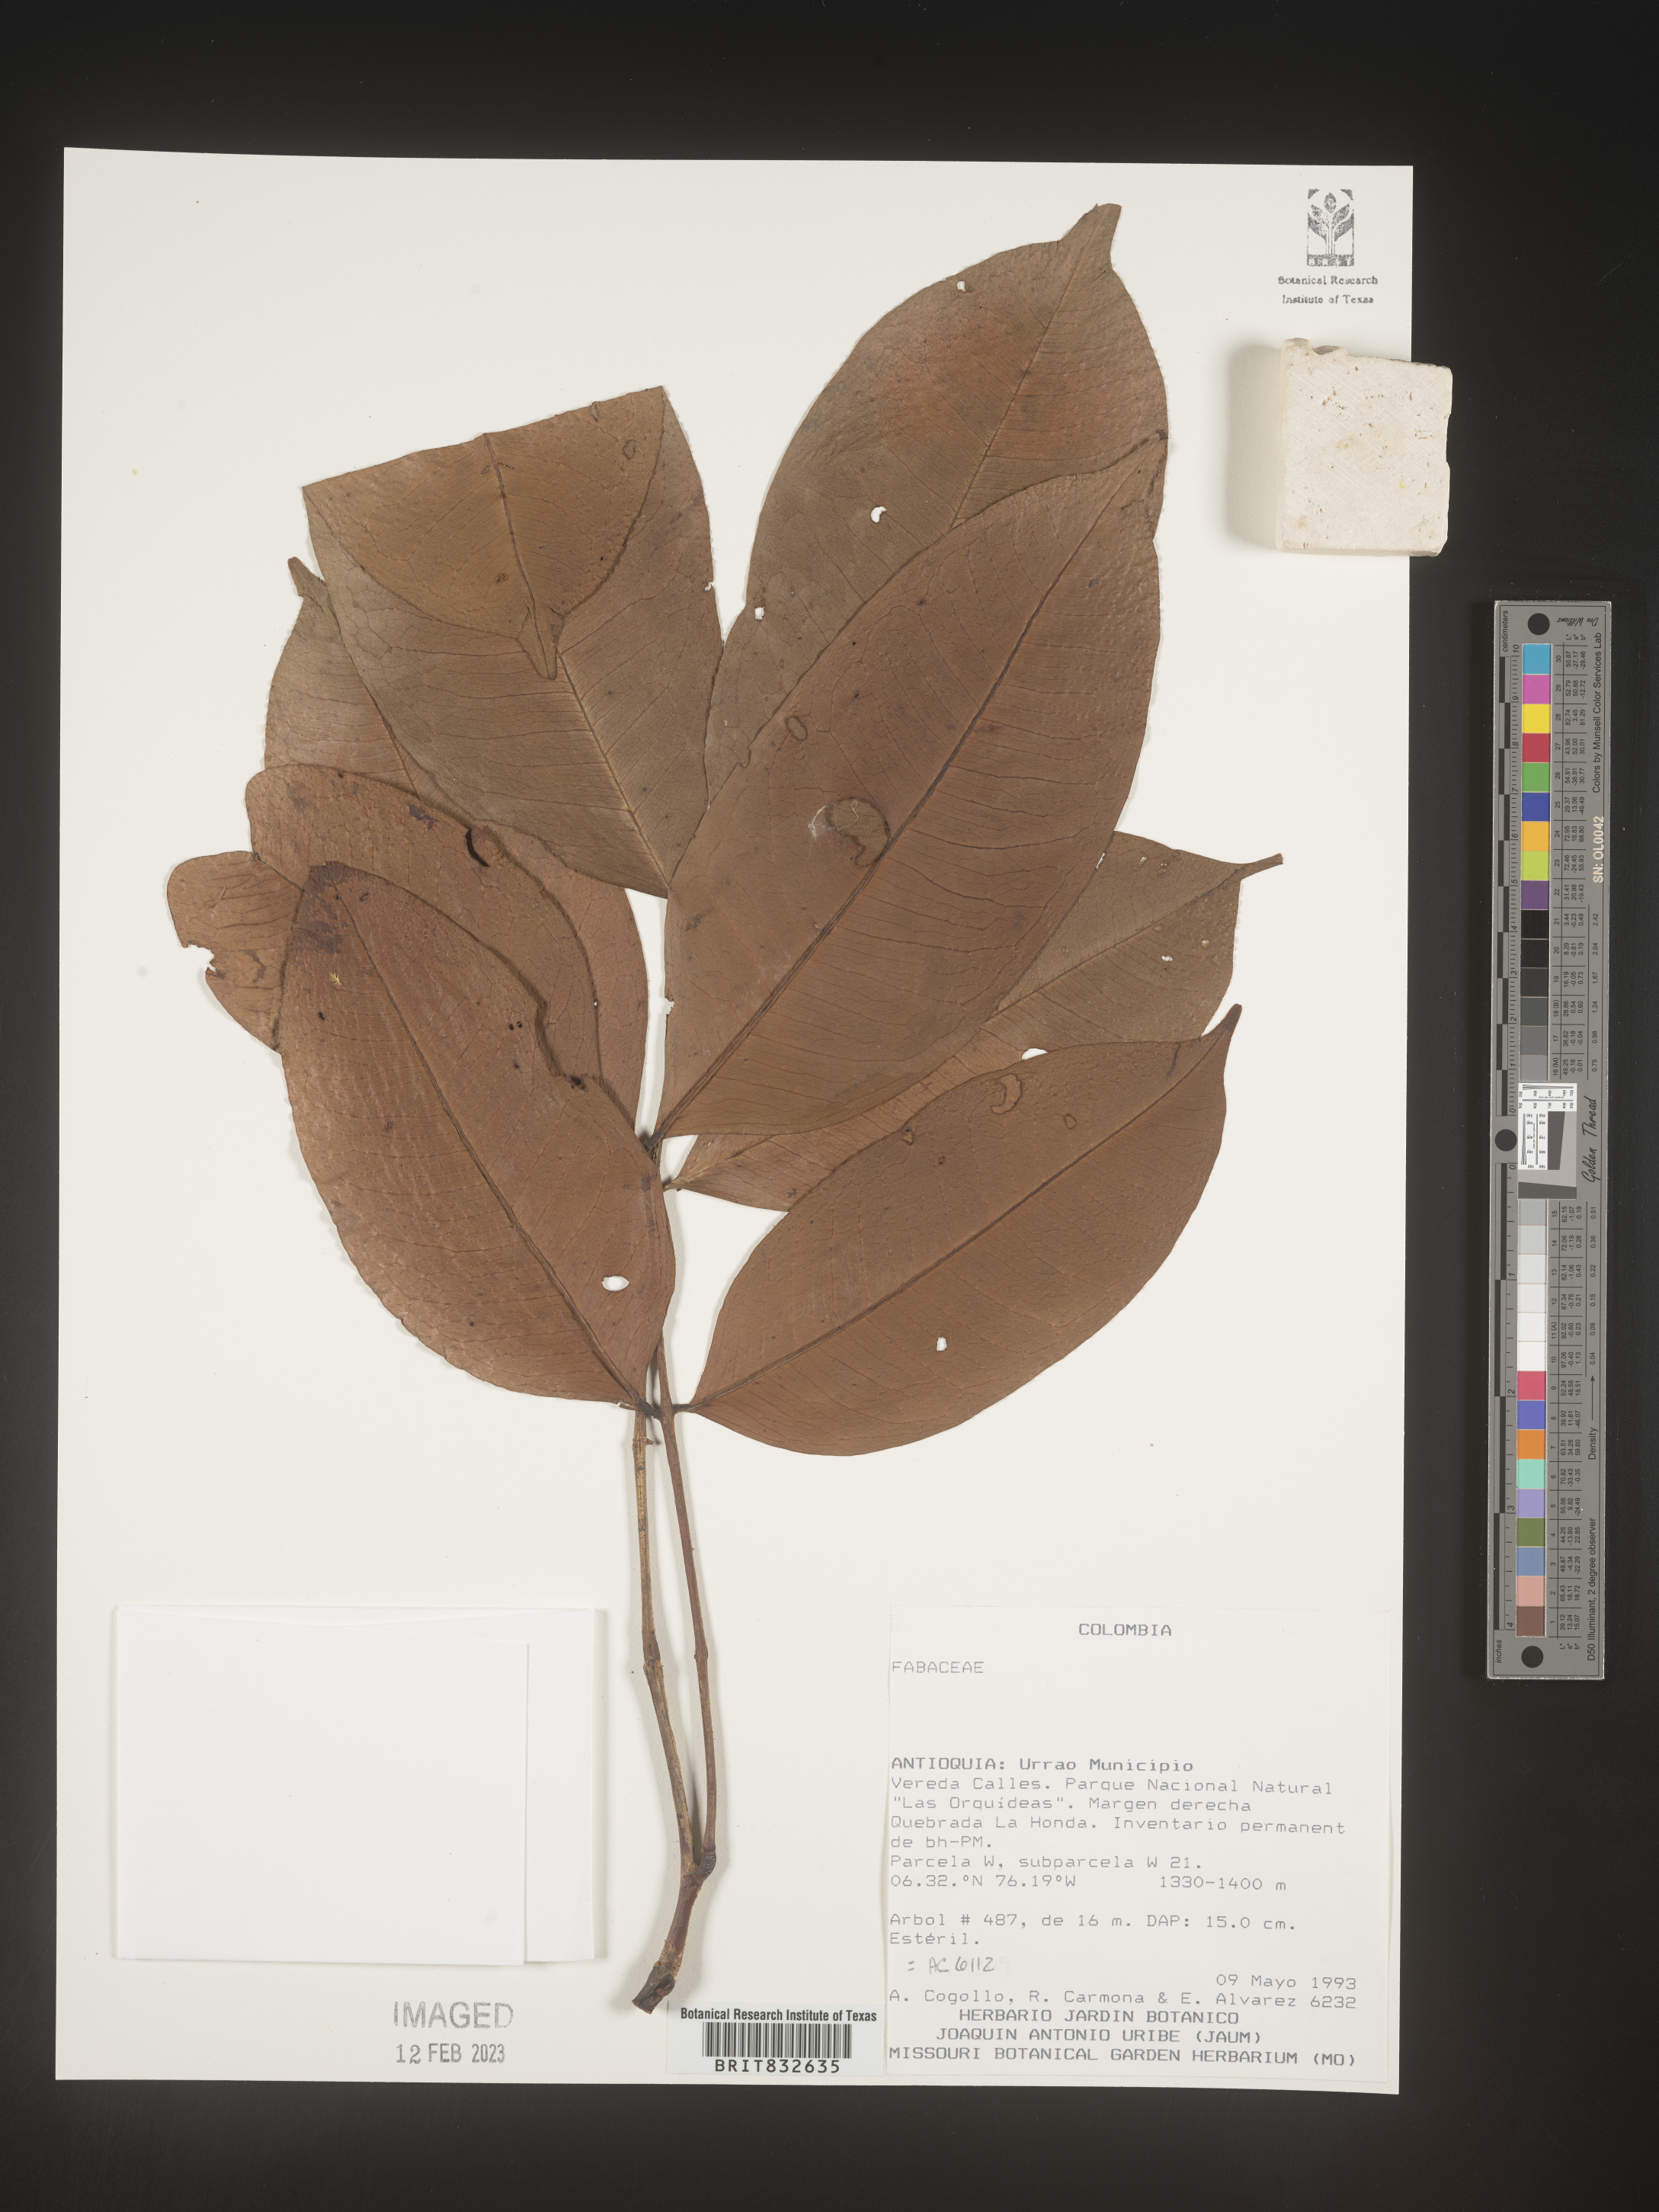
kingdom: Plantae
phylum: Tracheophyta
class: Magnoliopsida
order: Fabales
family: Fabaceae
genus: Swartzia
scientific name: Swartzia
